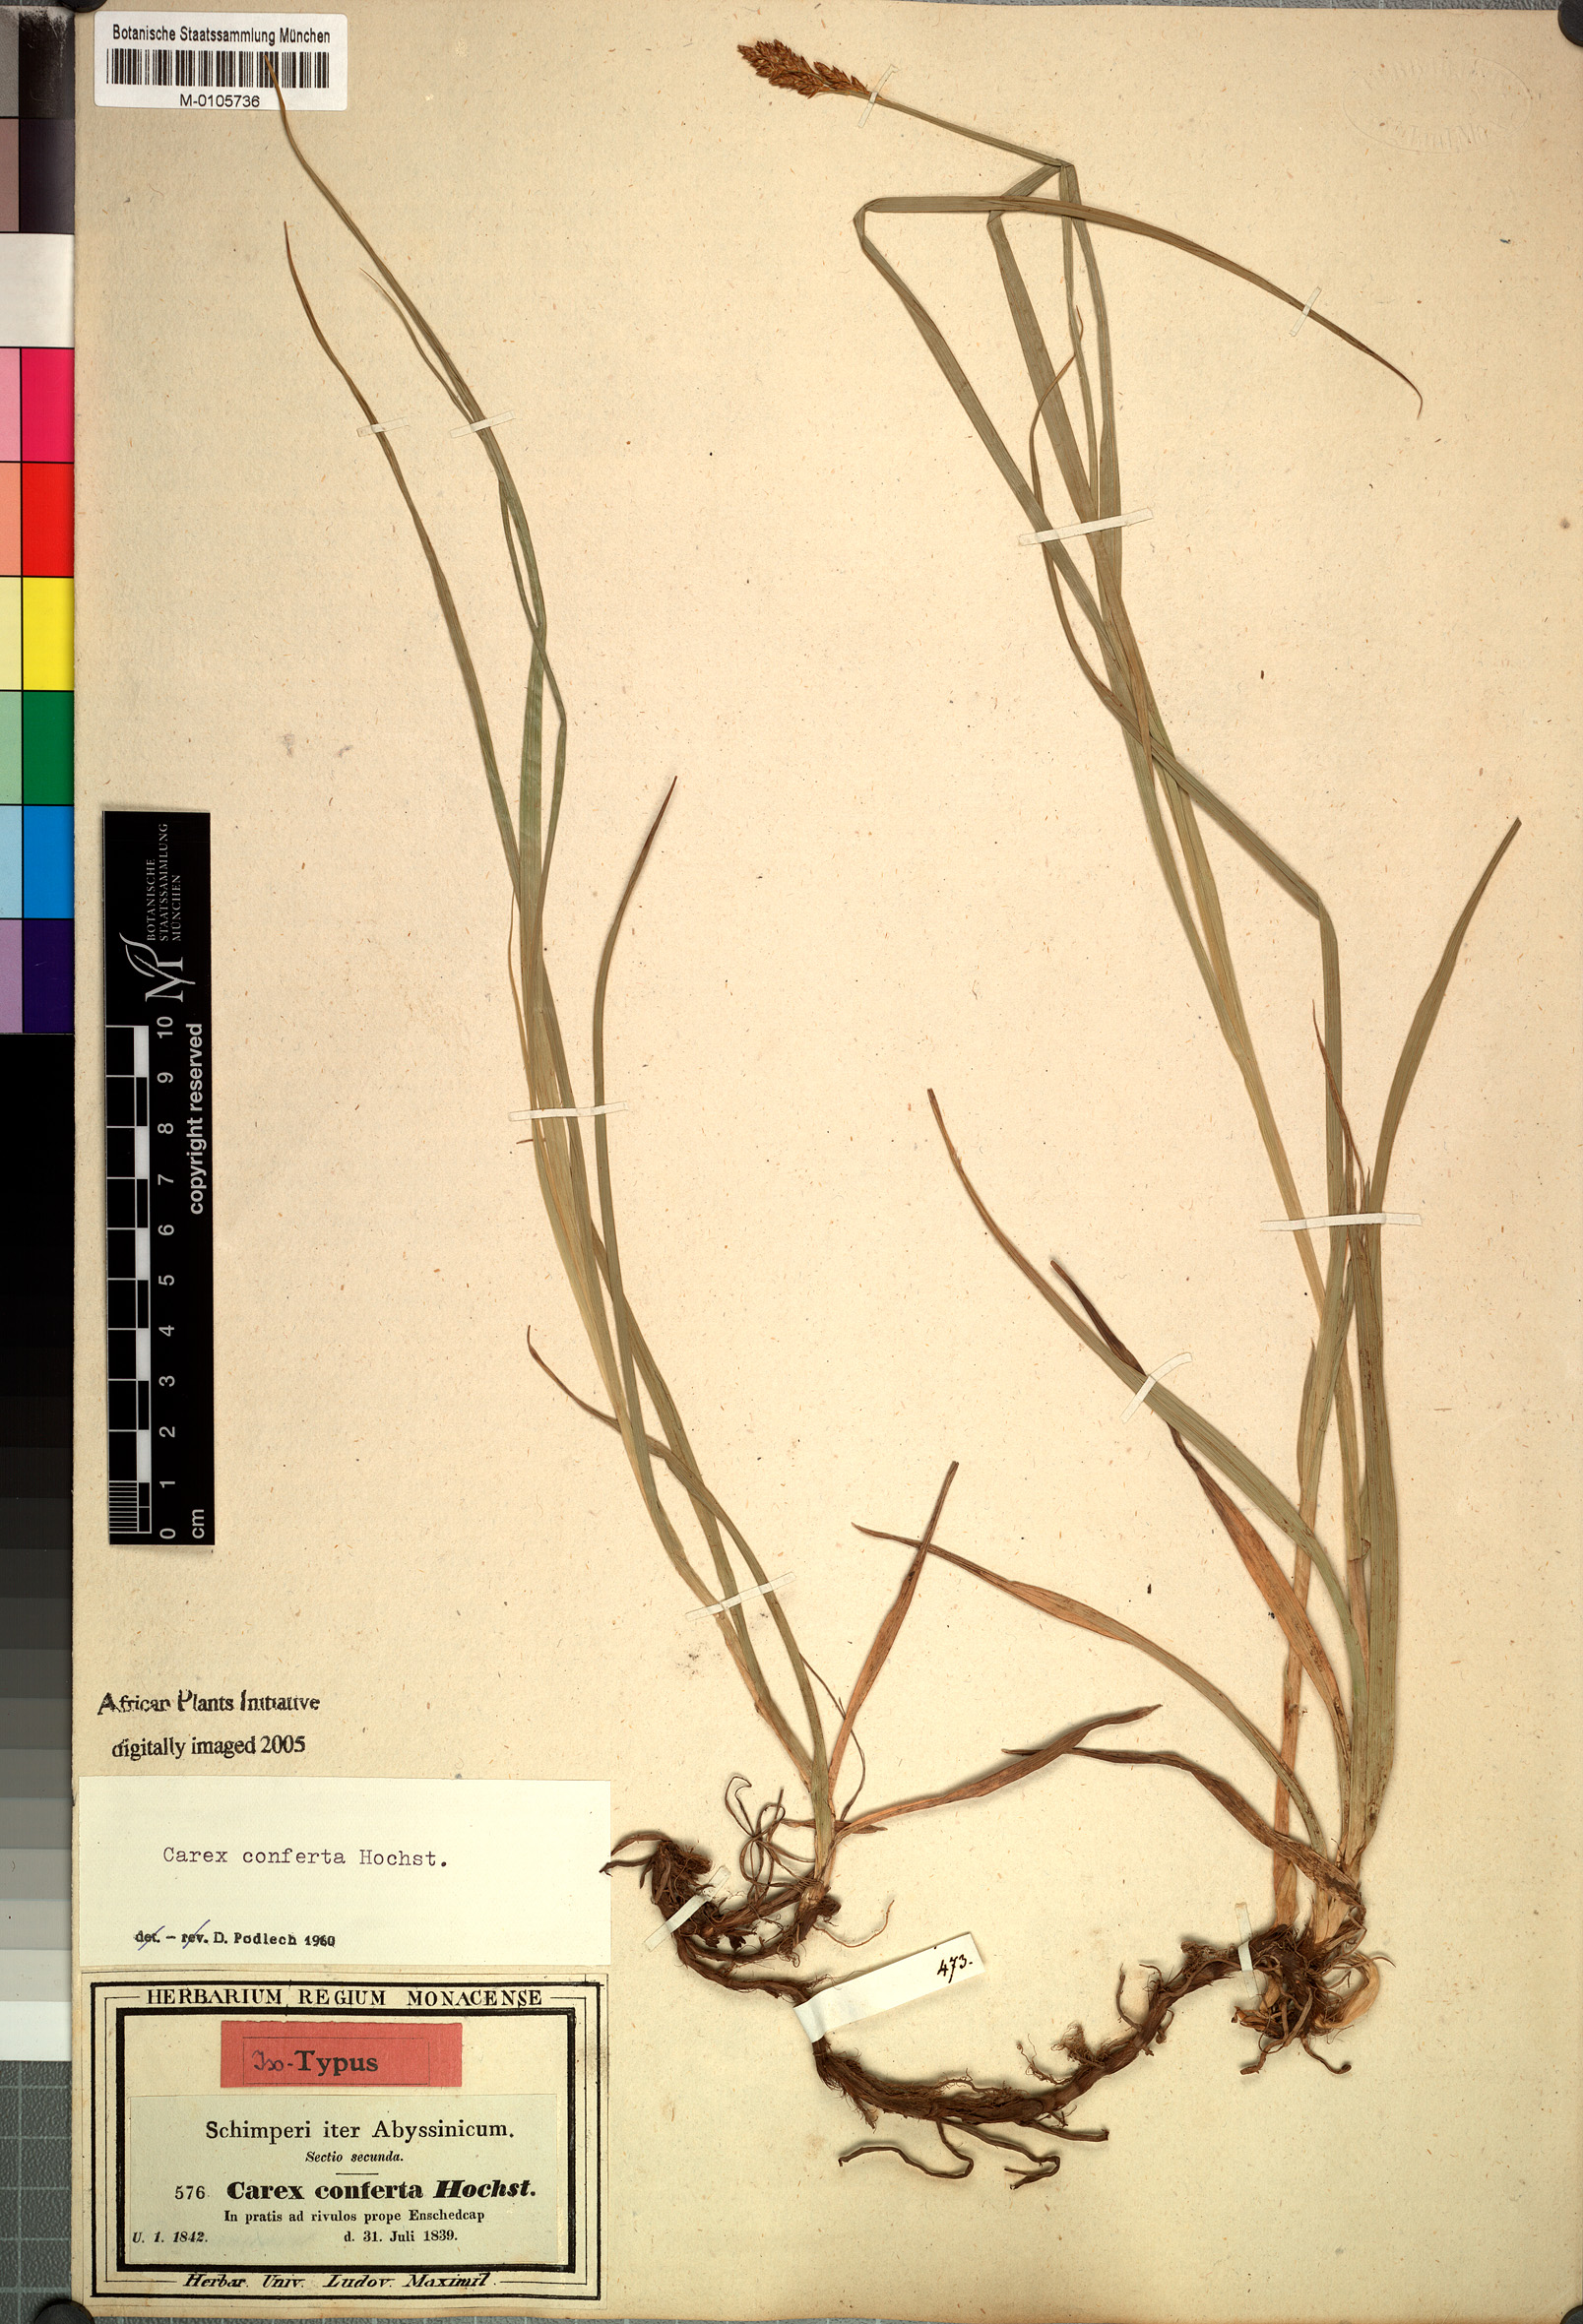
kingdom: Plantae
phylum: Tracheophyta
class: Liliopsida
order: Poales
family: Cyperaceae
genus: Carex
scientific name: Carex conferta
